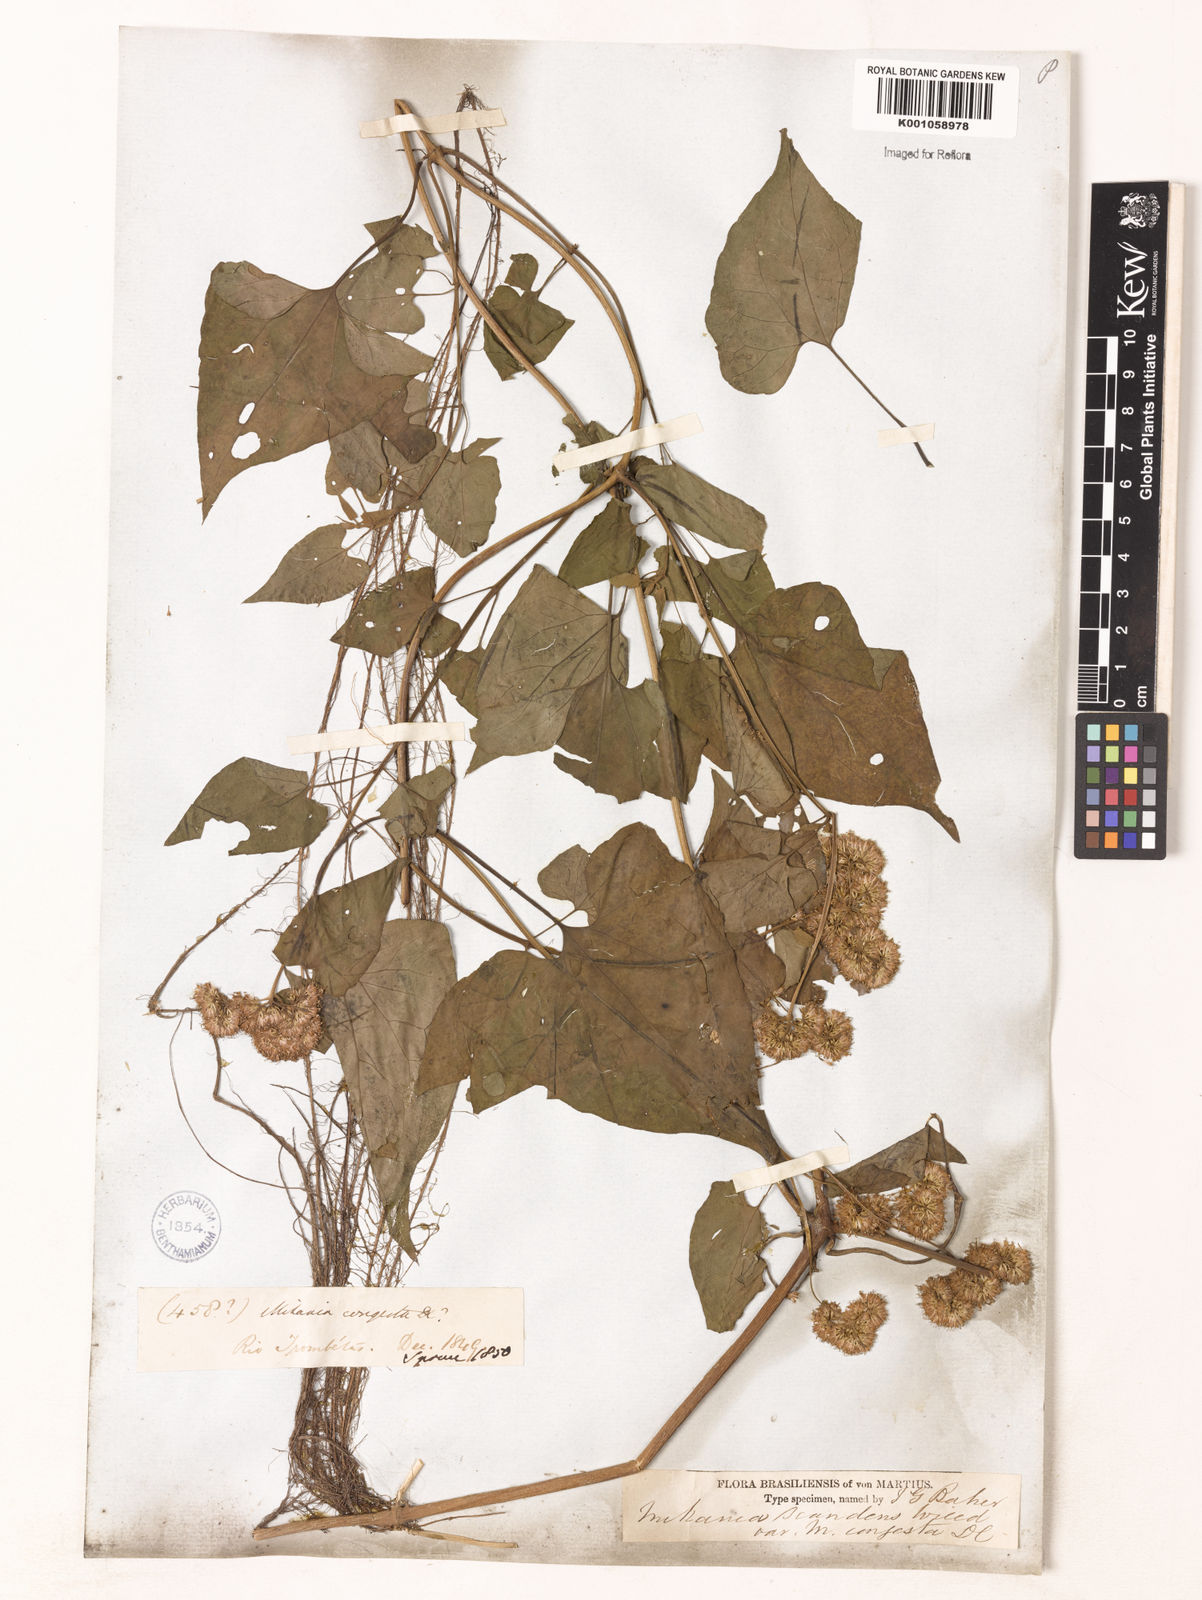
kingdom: Plantae
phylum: Tracheophyta
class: Magnoliopsida
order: Asterales
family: Asteraceae
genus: Mikania
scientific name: Mikania congesta
